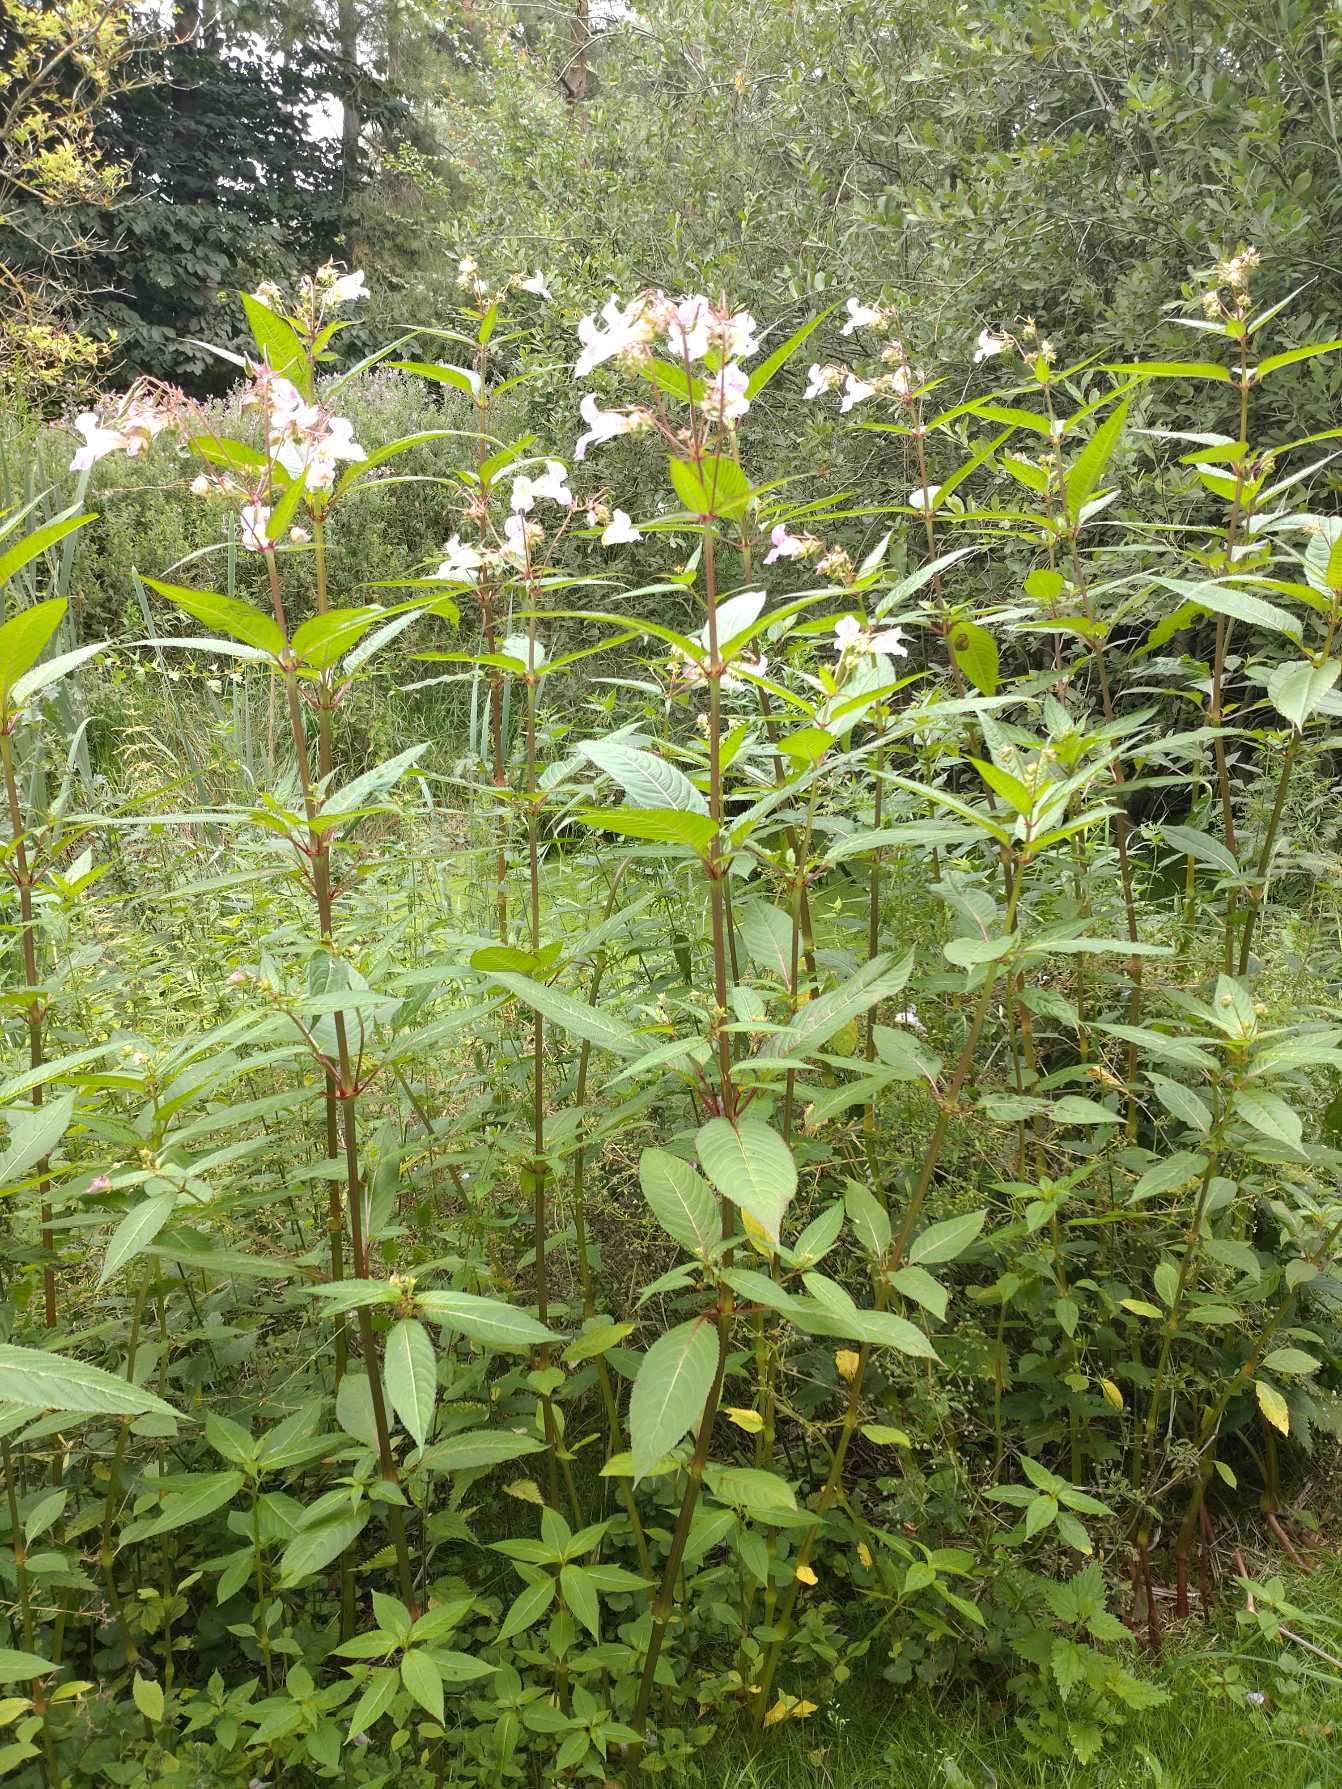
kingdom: Plantae
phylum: Tracheophyta
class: Magnoliopsida
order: Ericales
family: Balsaminaceae
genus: Impatiens
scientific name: Impatiens glandulifera
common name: Kæmpe-balsamin
